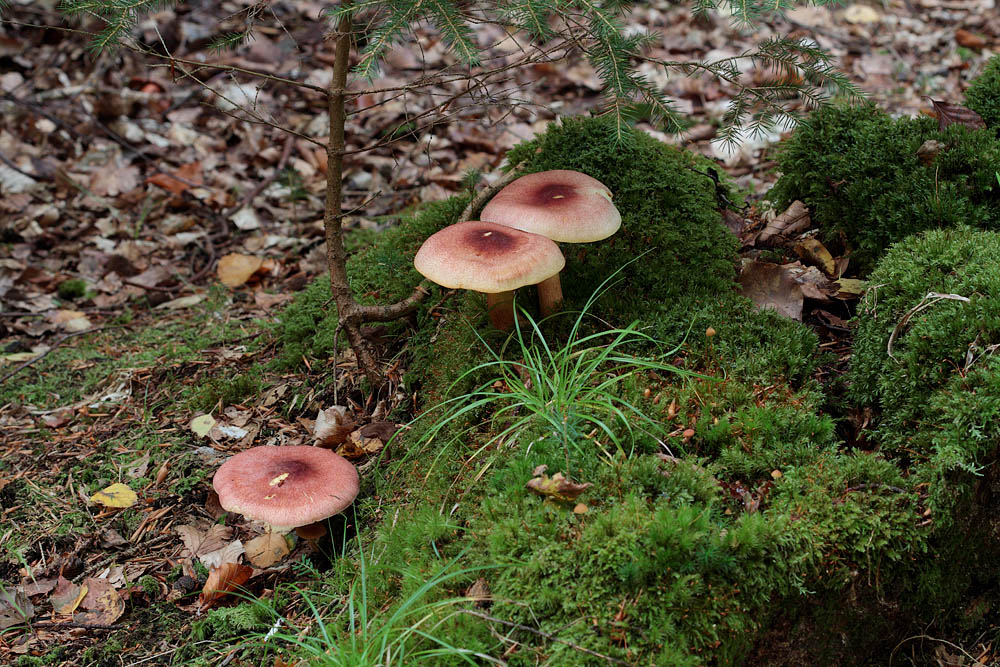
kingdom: Fungi
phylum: Basidiomycota
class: Agaricomycetes
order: Agaricales
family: Tricholomataceae
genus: Tricholomopsis
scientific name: Tricholomopsis rutilans
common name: purpur-væbnerhat
